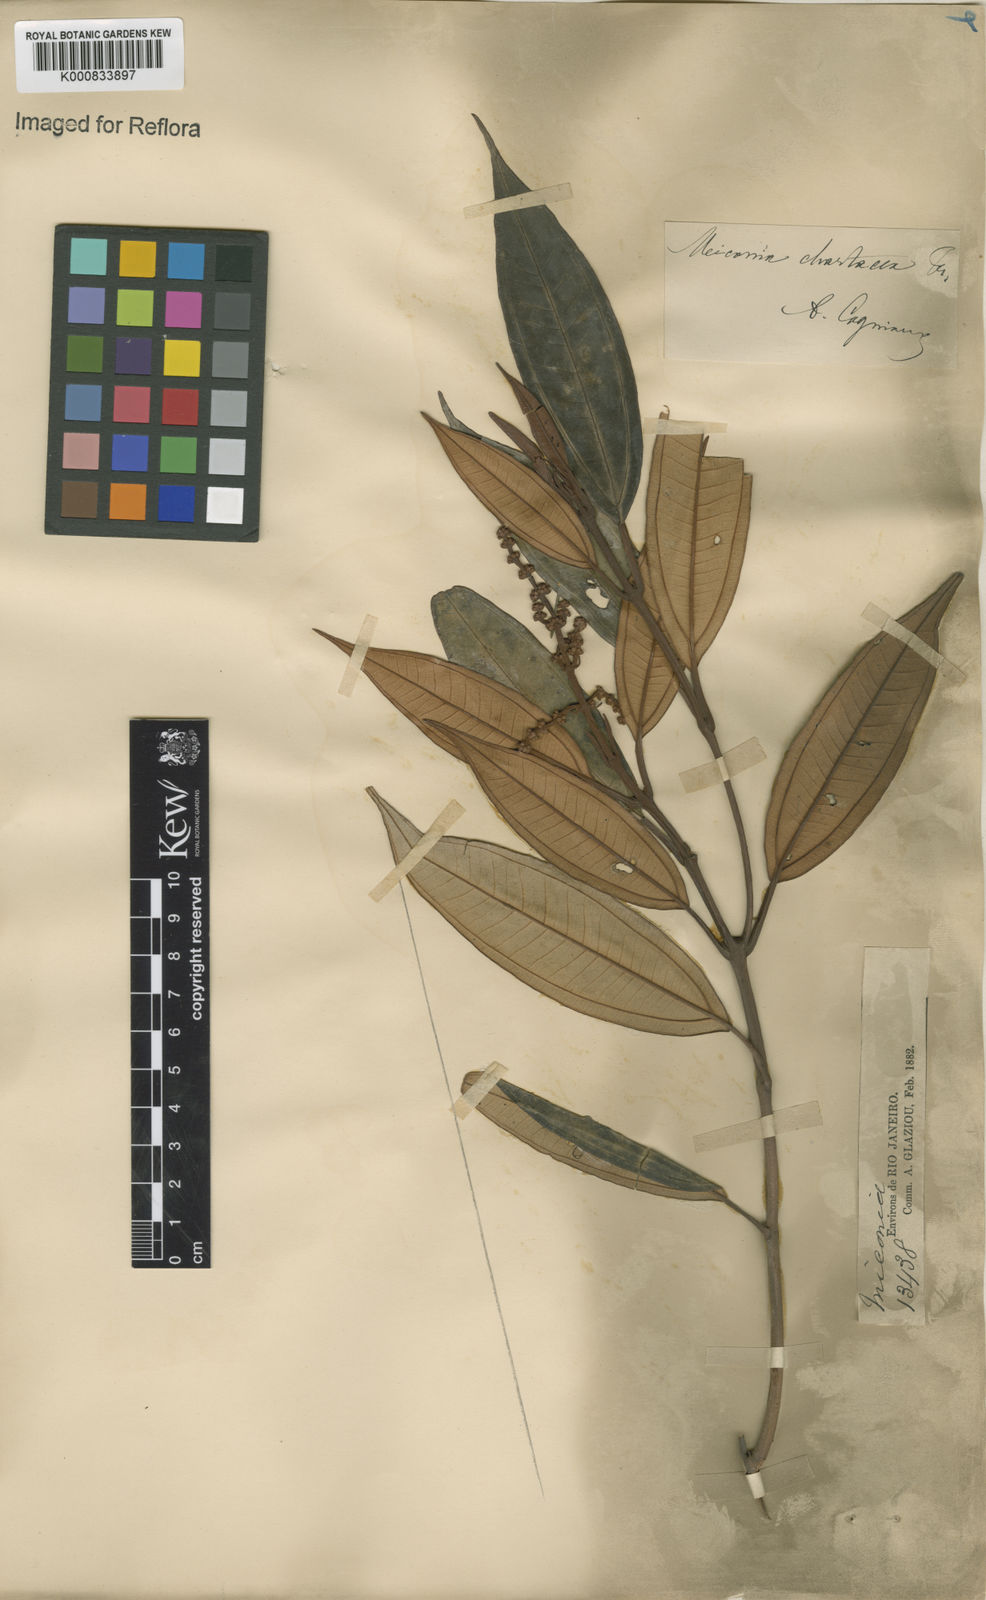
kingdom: Plantae
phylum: Tracheophyta
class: Magnoliopsida
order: Myrtales
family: Melastomataceae
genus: Miconia
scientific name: Miconia chartacea
